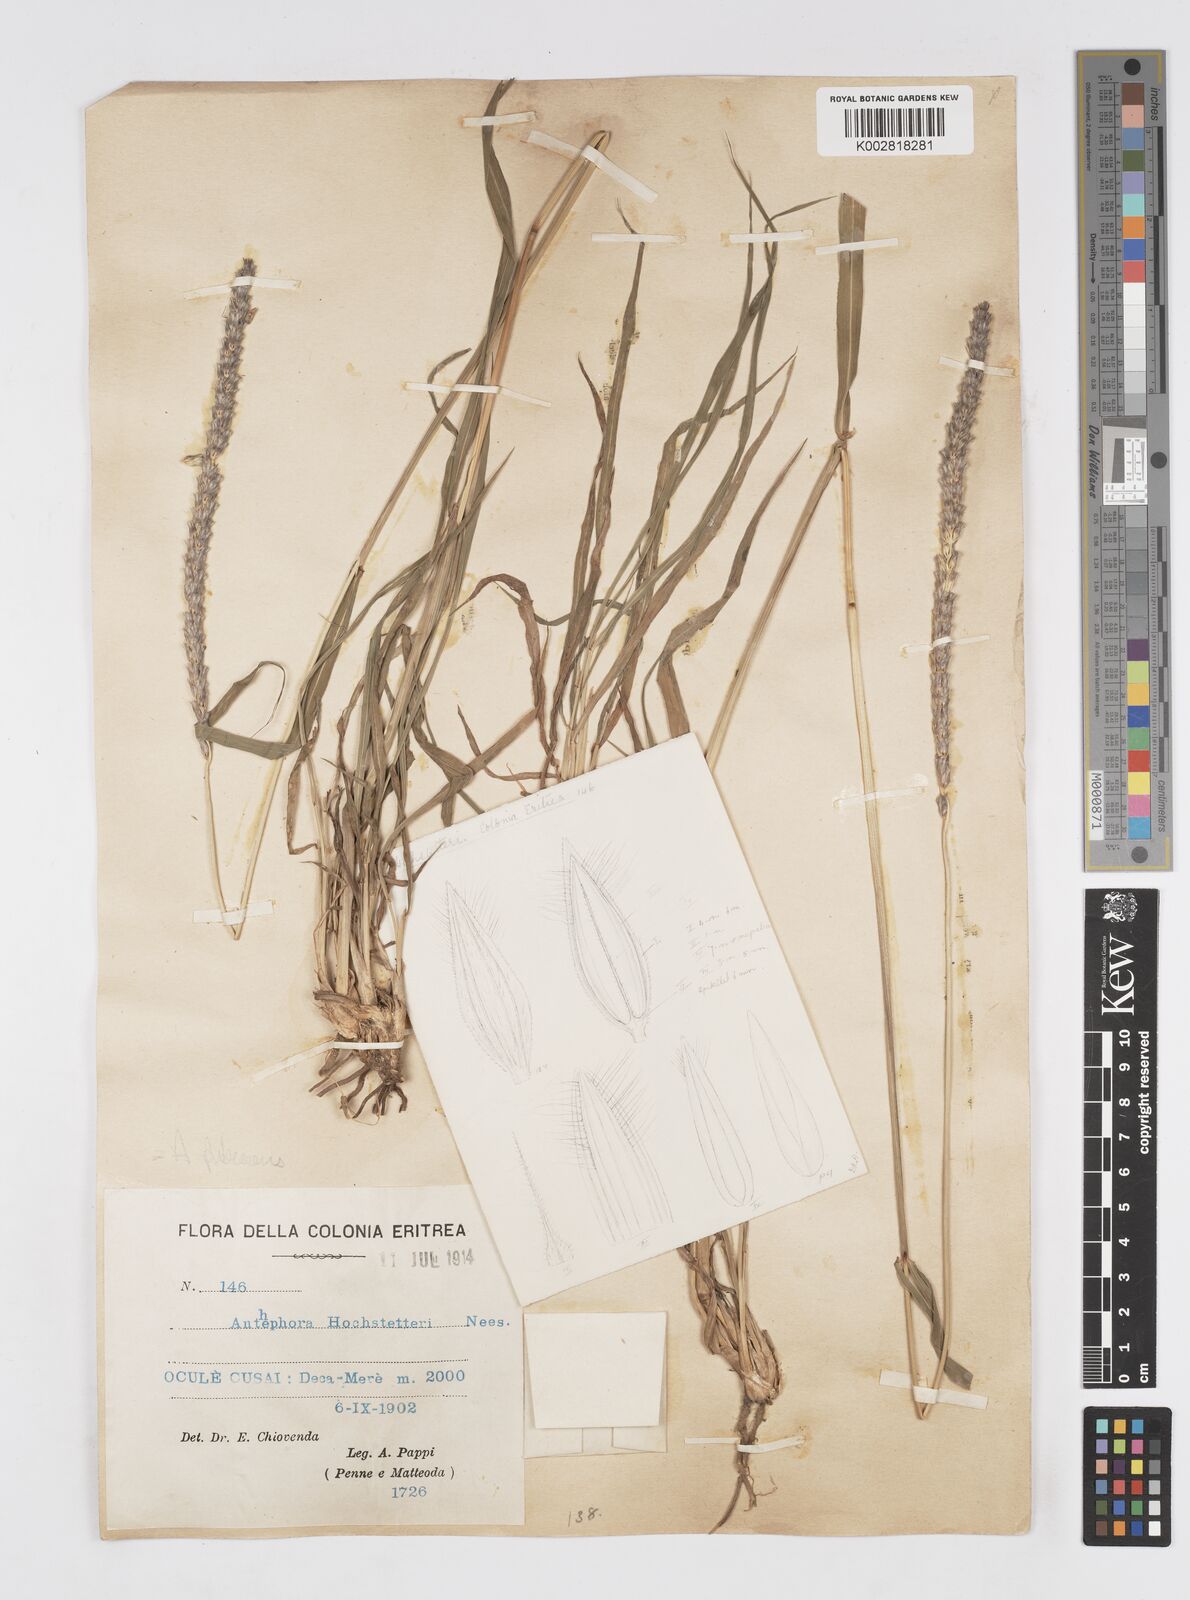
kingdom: Plantae
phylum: Tracheophyta
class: Liliopsida
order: Poales
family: Poaceae
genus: Anthephora
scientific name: Anthephora pubescens
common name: Wool grass
